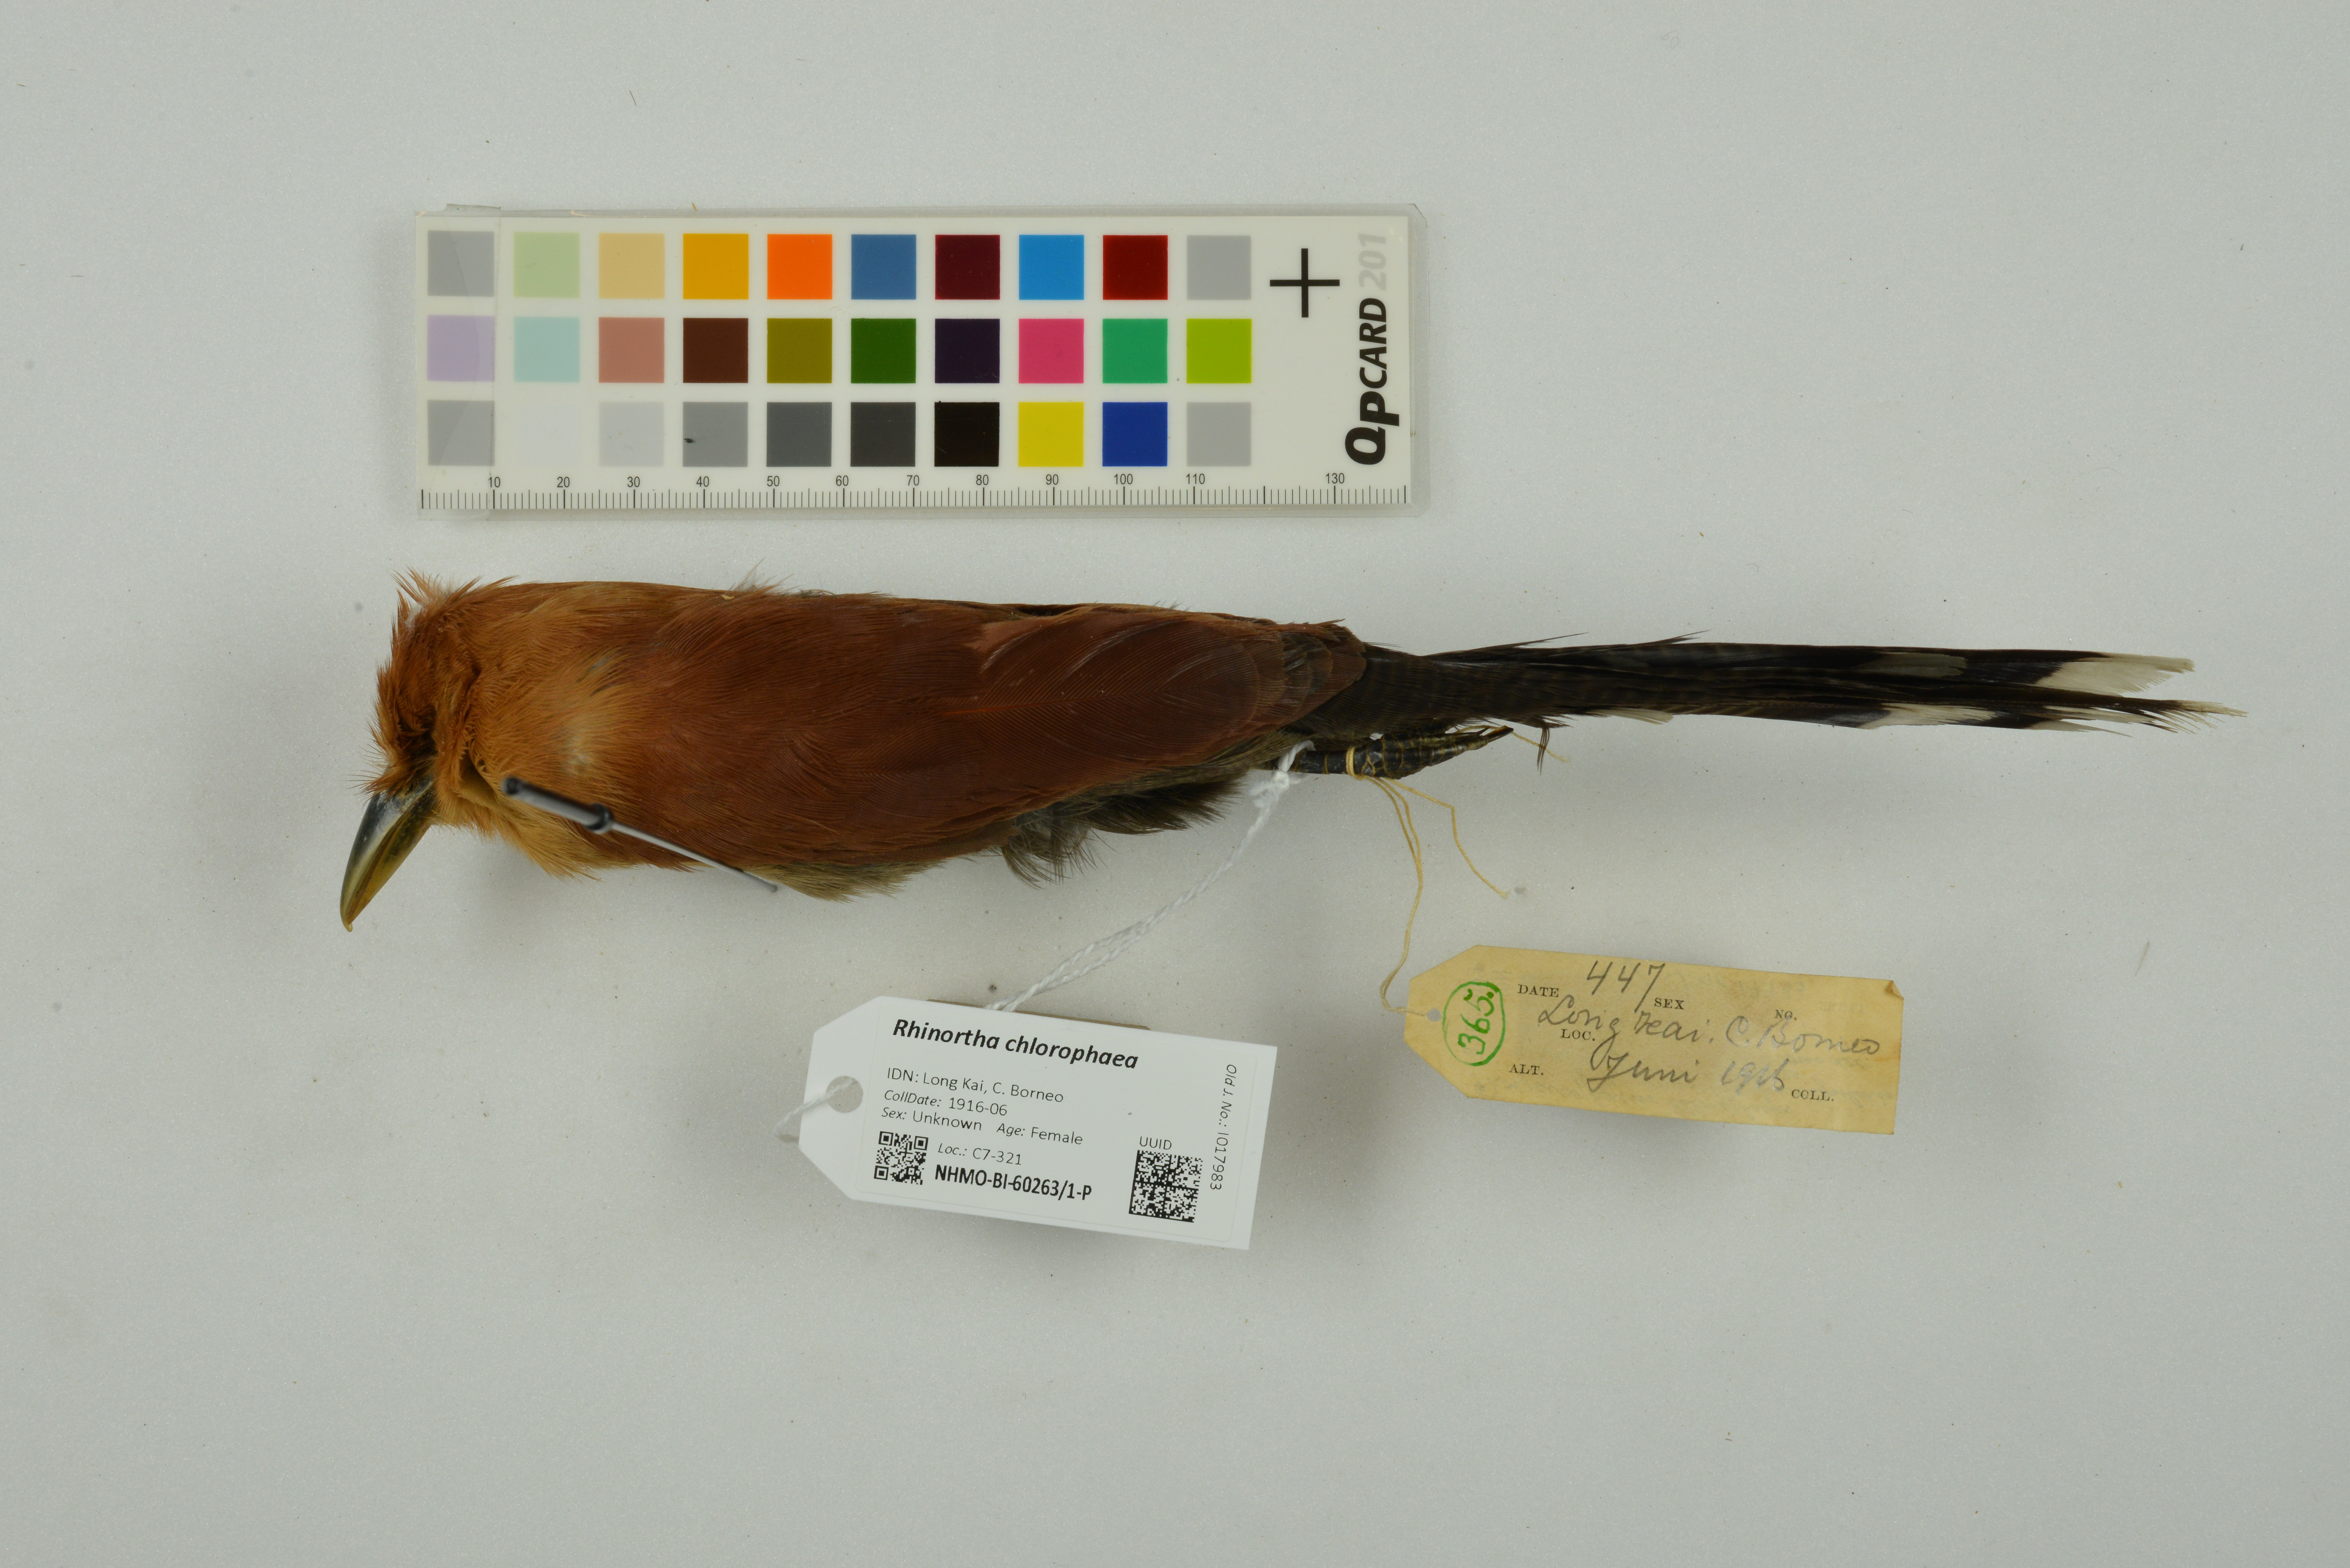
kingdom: Animalia
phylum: Chordata
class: Aves
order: Cuculiformes
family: Cuculidae
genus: Rhinortha
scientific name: Rhinortha chlorophaea
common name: Raffles's malkoha
